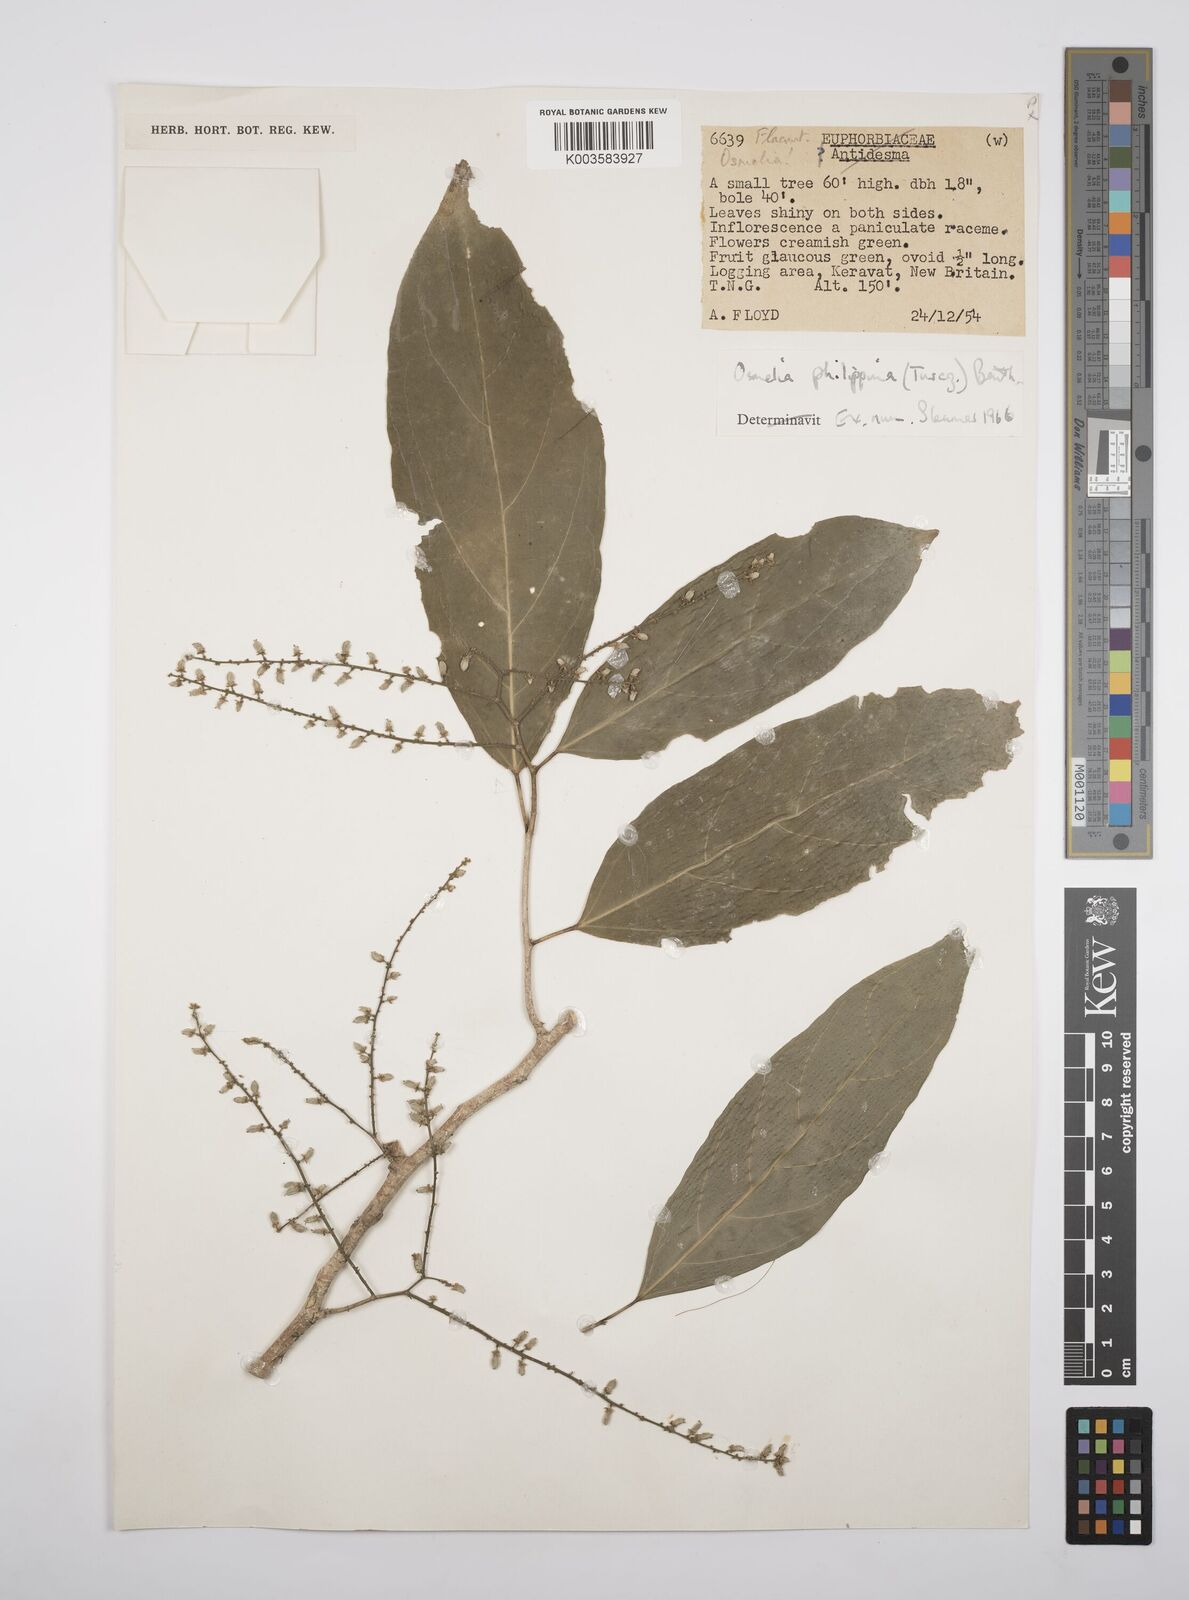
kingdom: Plantae
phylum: Tracheophyta
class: Magnoliopsida
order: Malpighiales
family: Salicaceae
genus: Osmelia
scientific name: Osmelia
